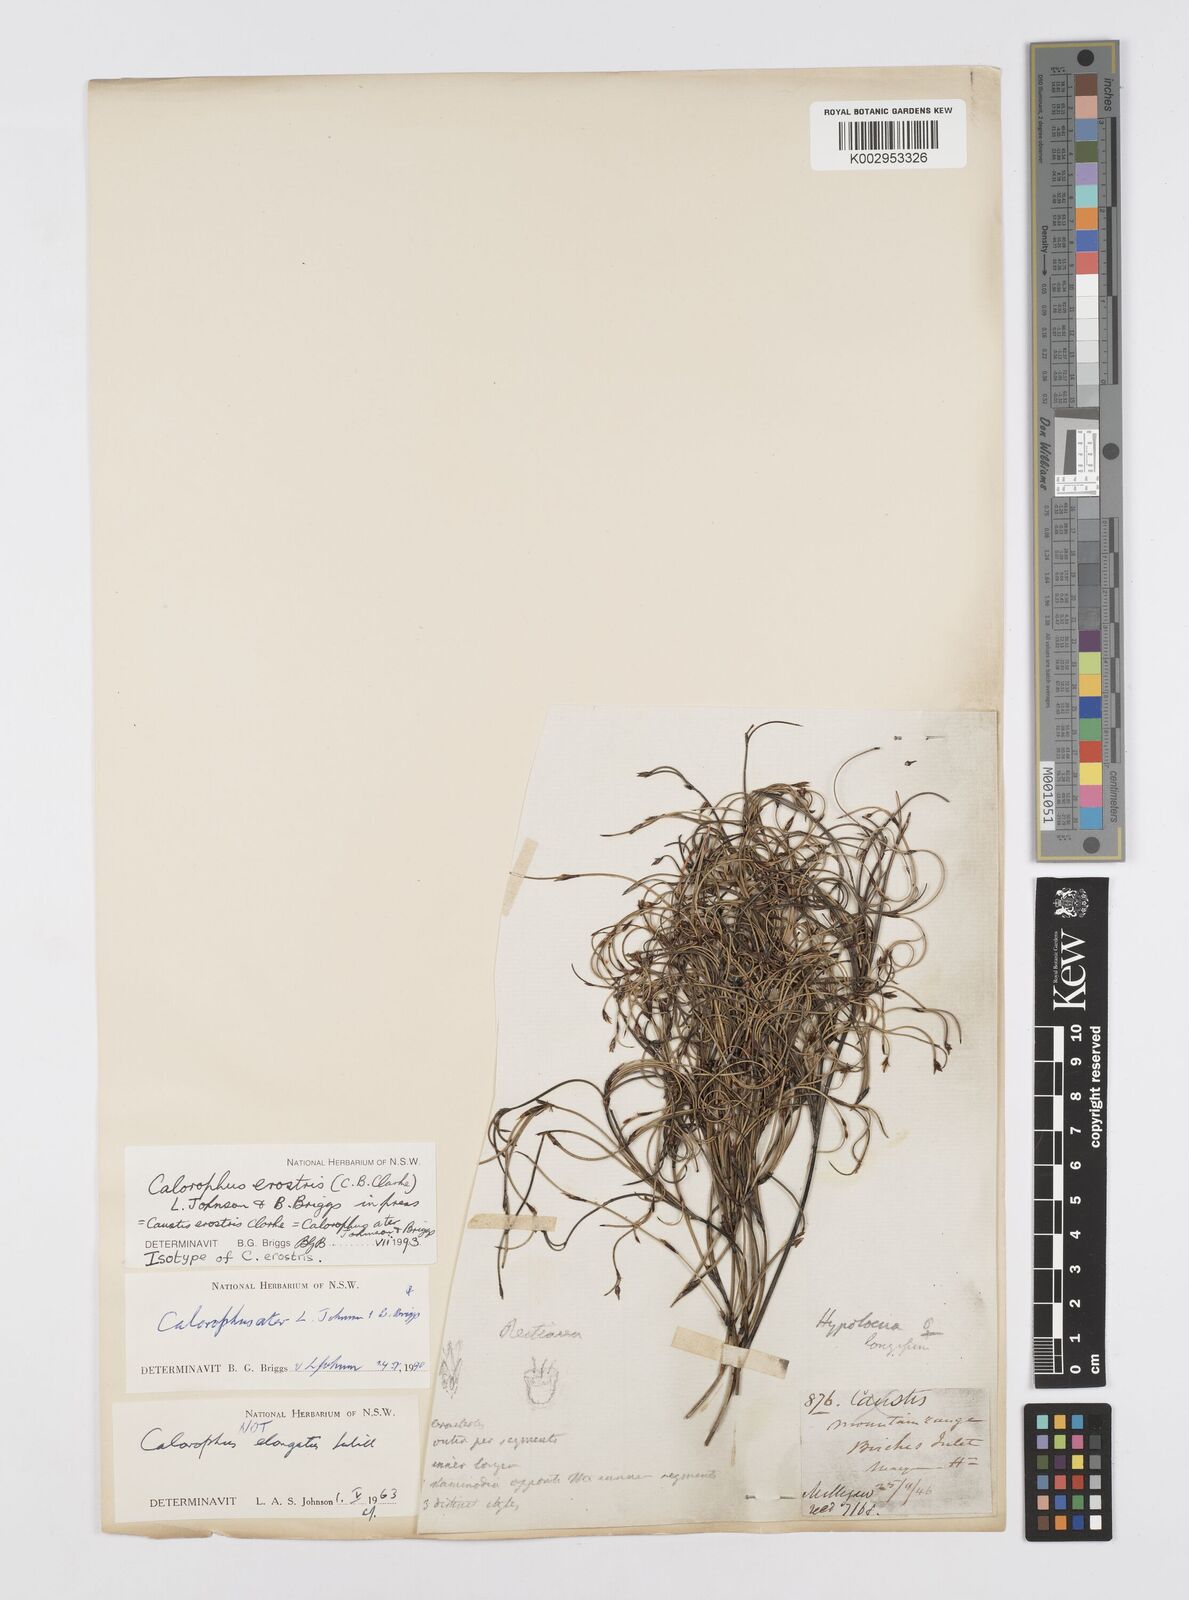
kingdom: Plantae
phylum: Tracheophyta
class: Liliopsida
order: Poales
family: Restionaceae
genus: Calorophus
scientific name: Calorophus erostris
